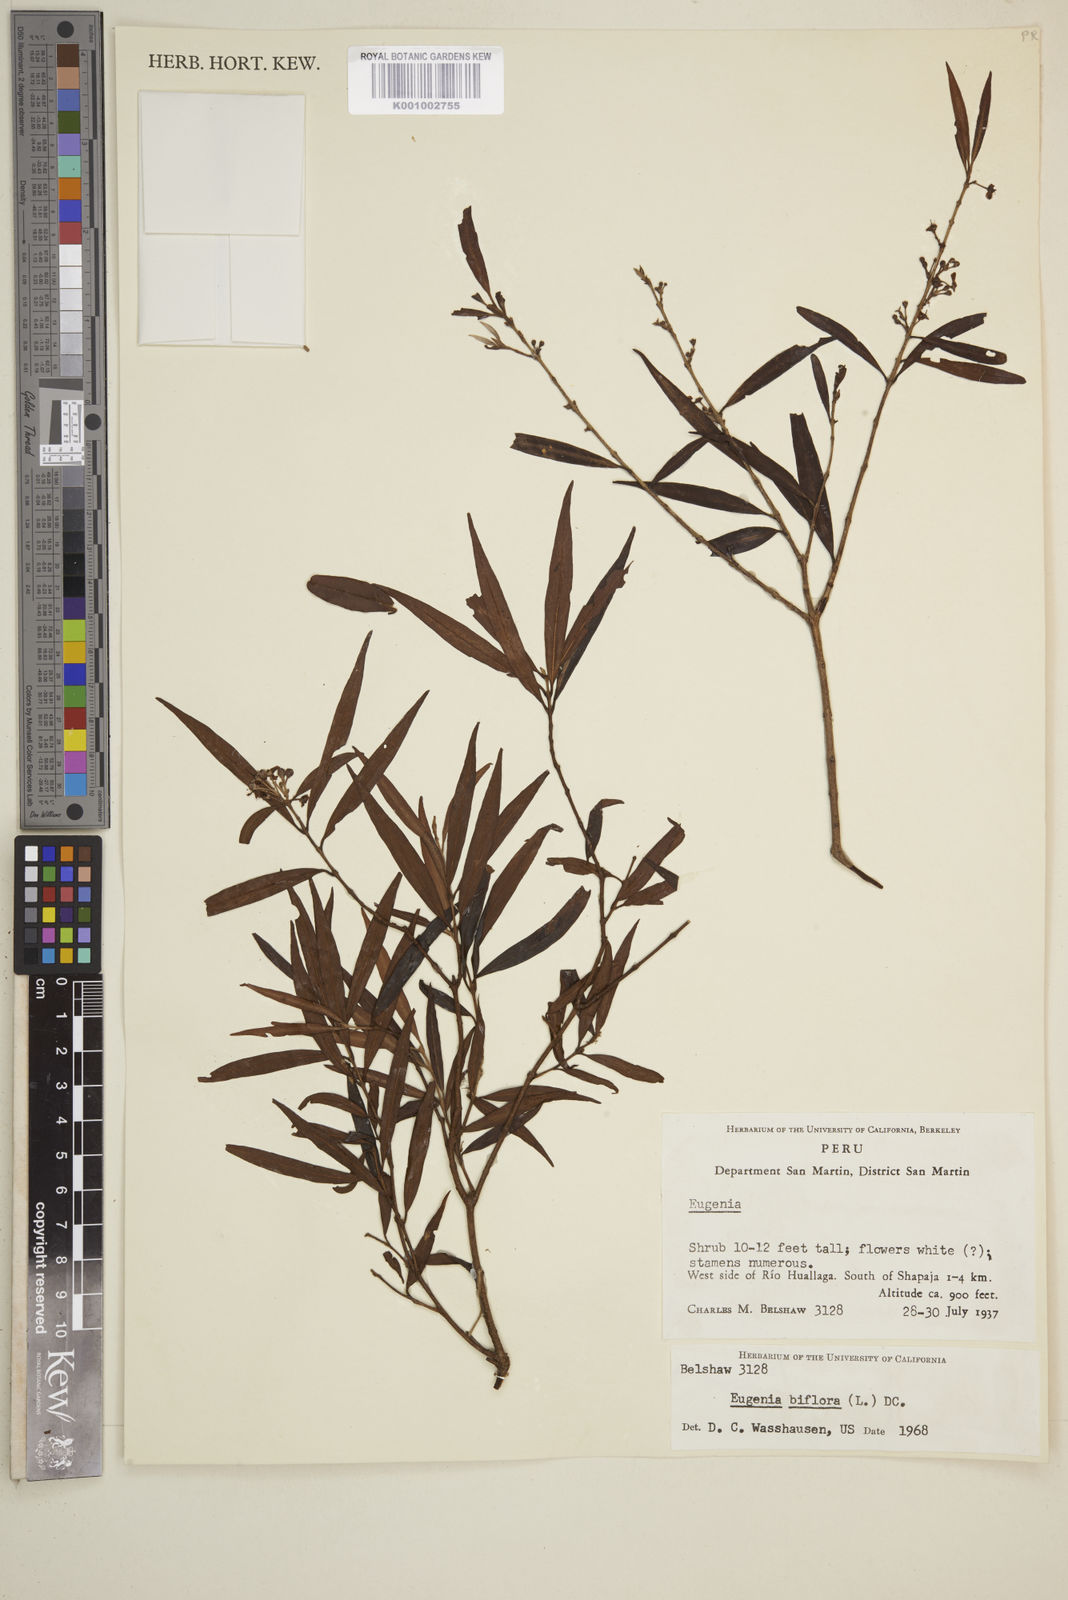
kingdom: Plantae
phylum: Tracheophyta
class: Magnoliopsida
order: Myrtales
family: Myrtaceae
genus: Eugenia
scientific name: Eugenia biflora
